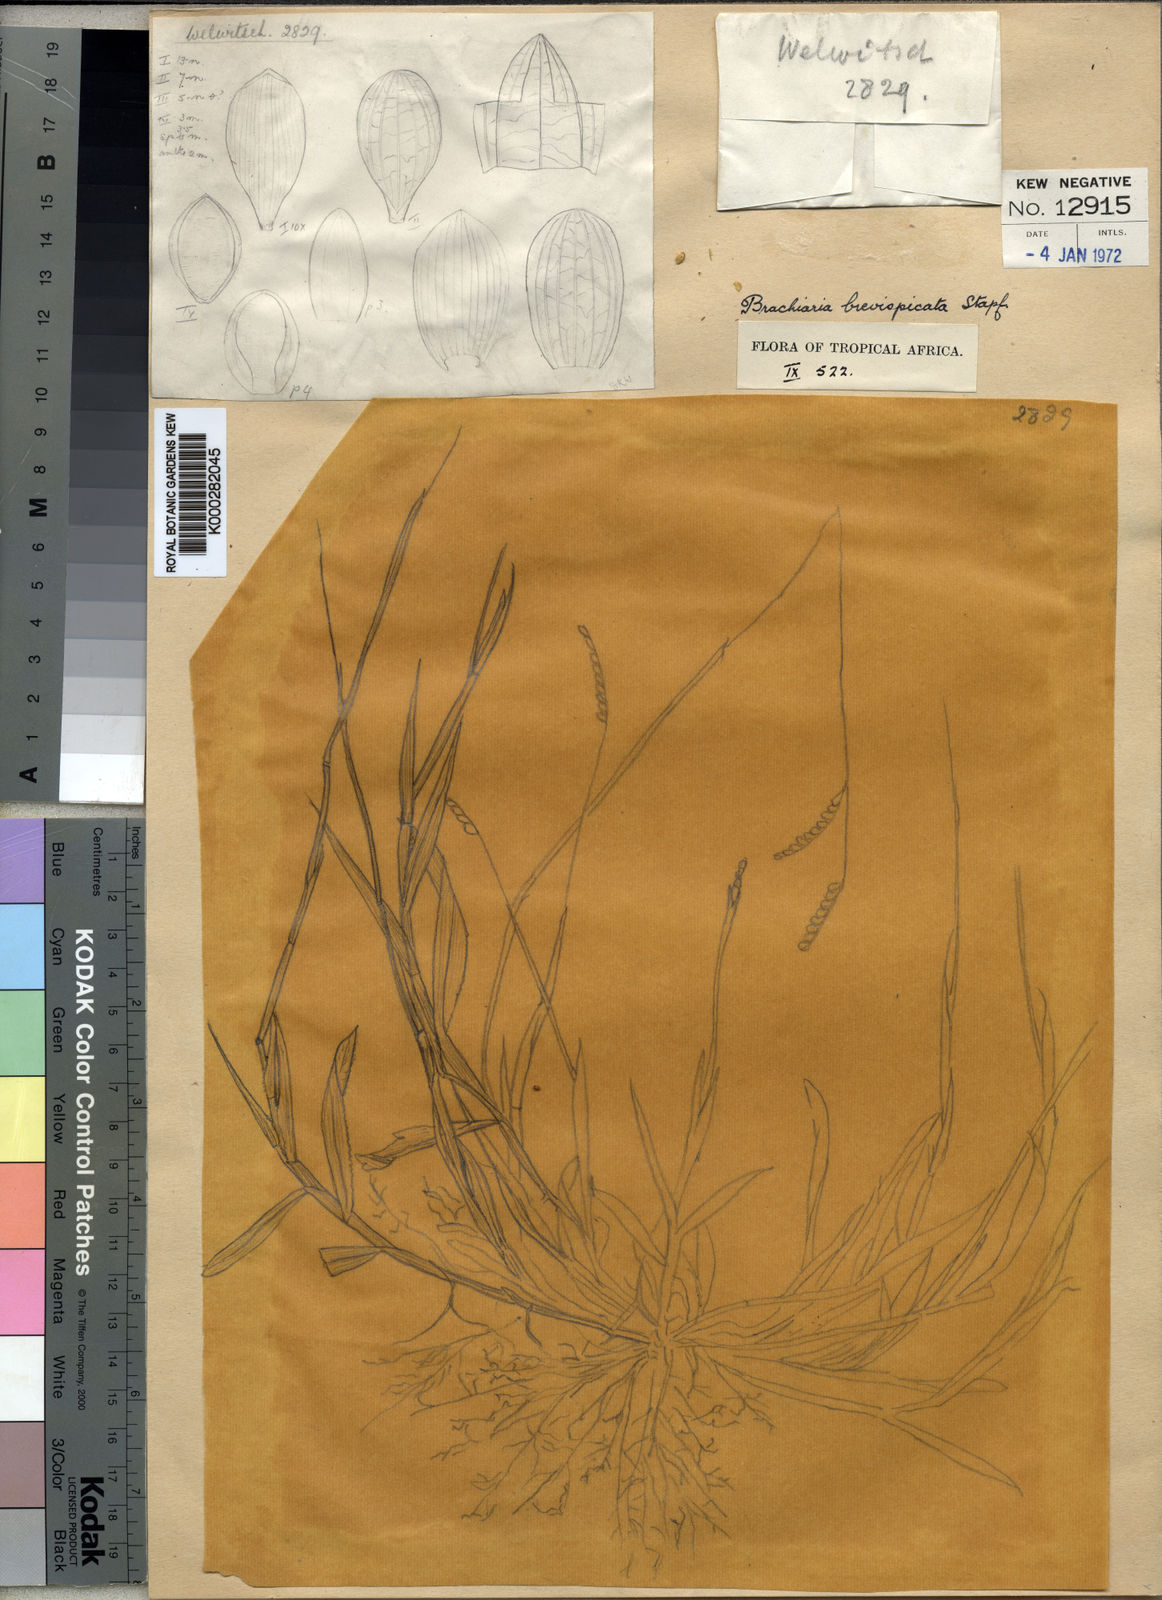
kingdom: Plantae
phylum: Tracheophyta
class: Liliopsida
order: Poales
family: Poaceae
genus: Urochloa
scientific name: Urochloa brevispicata
